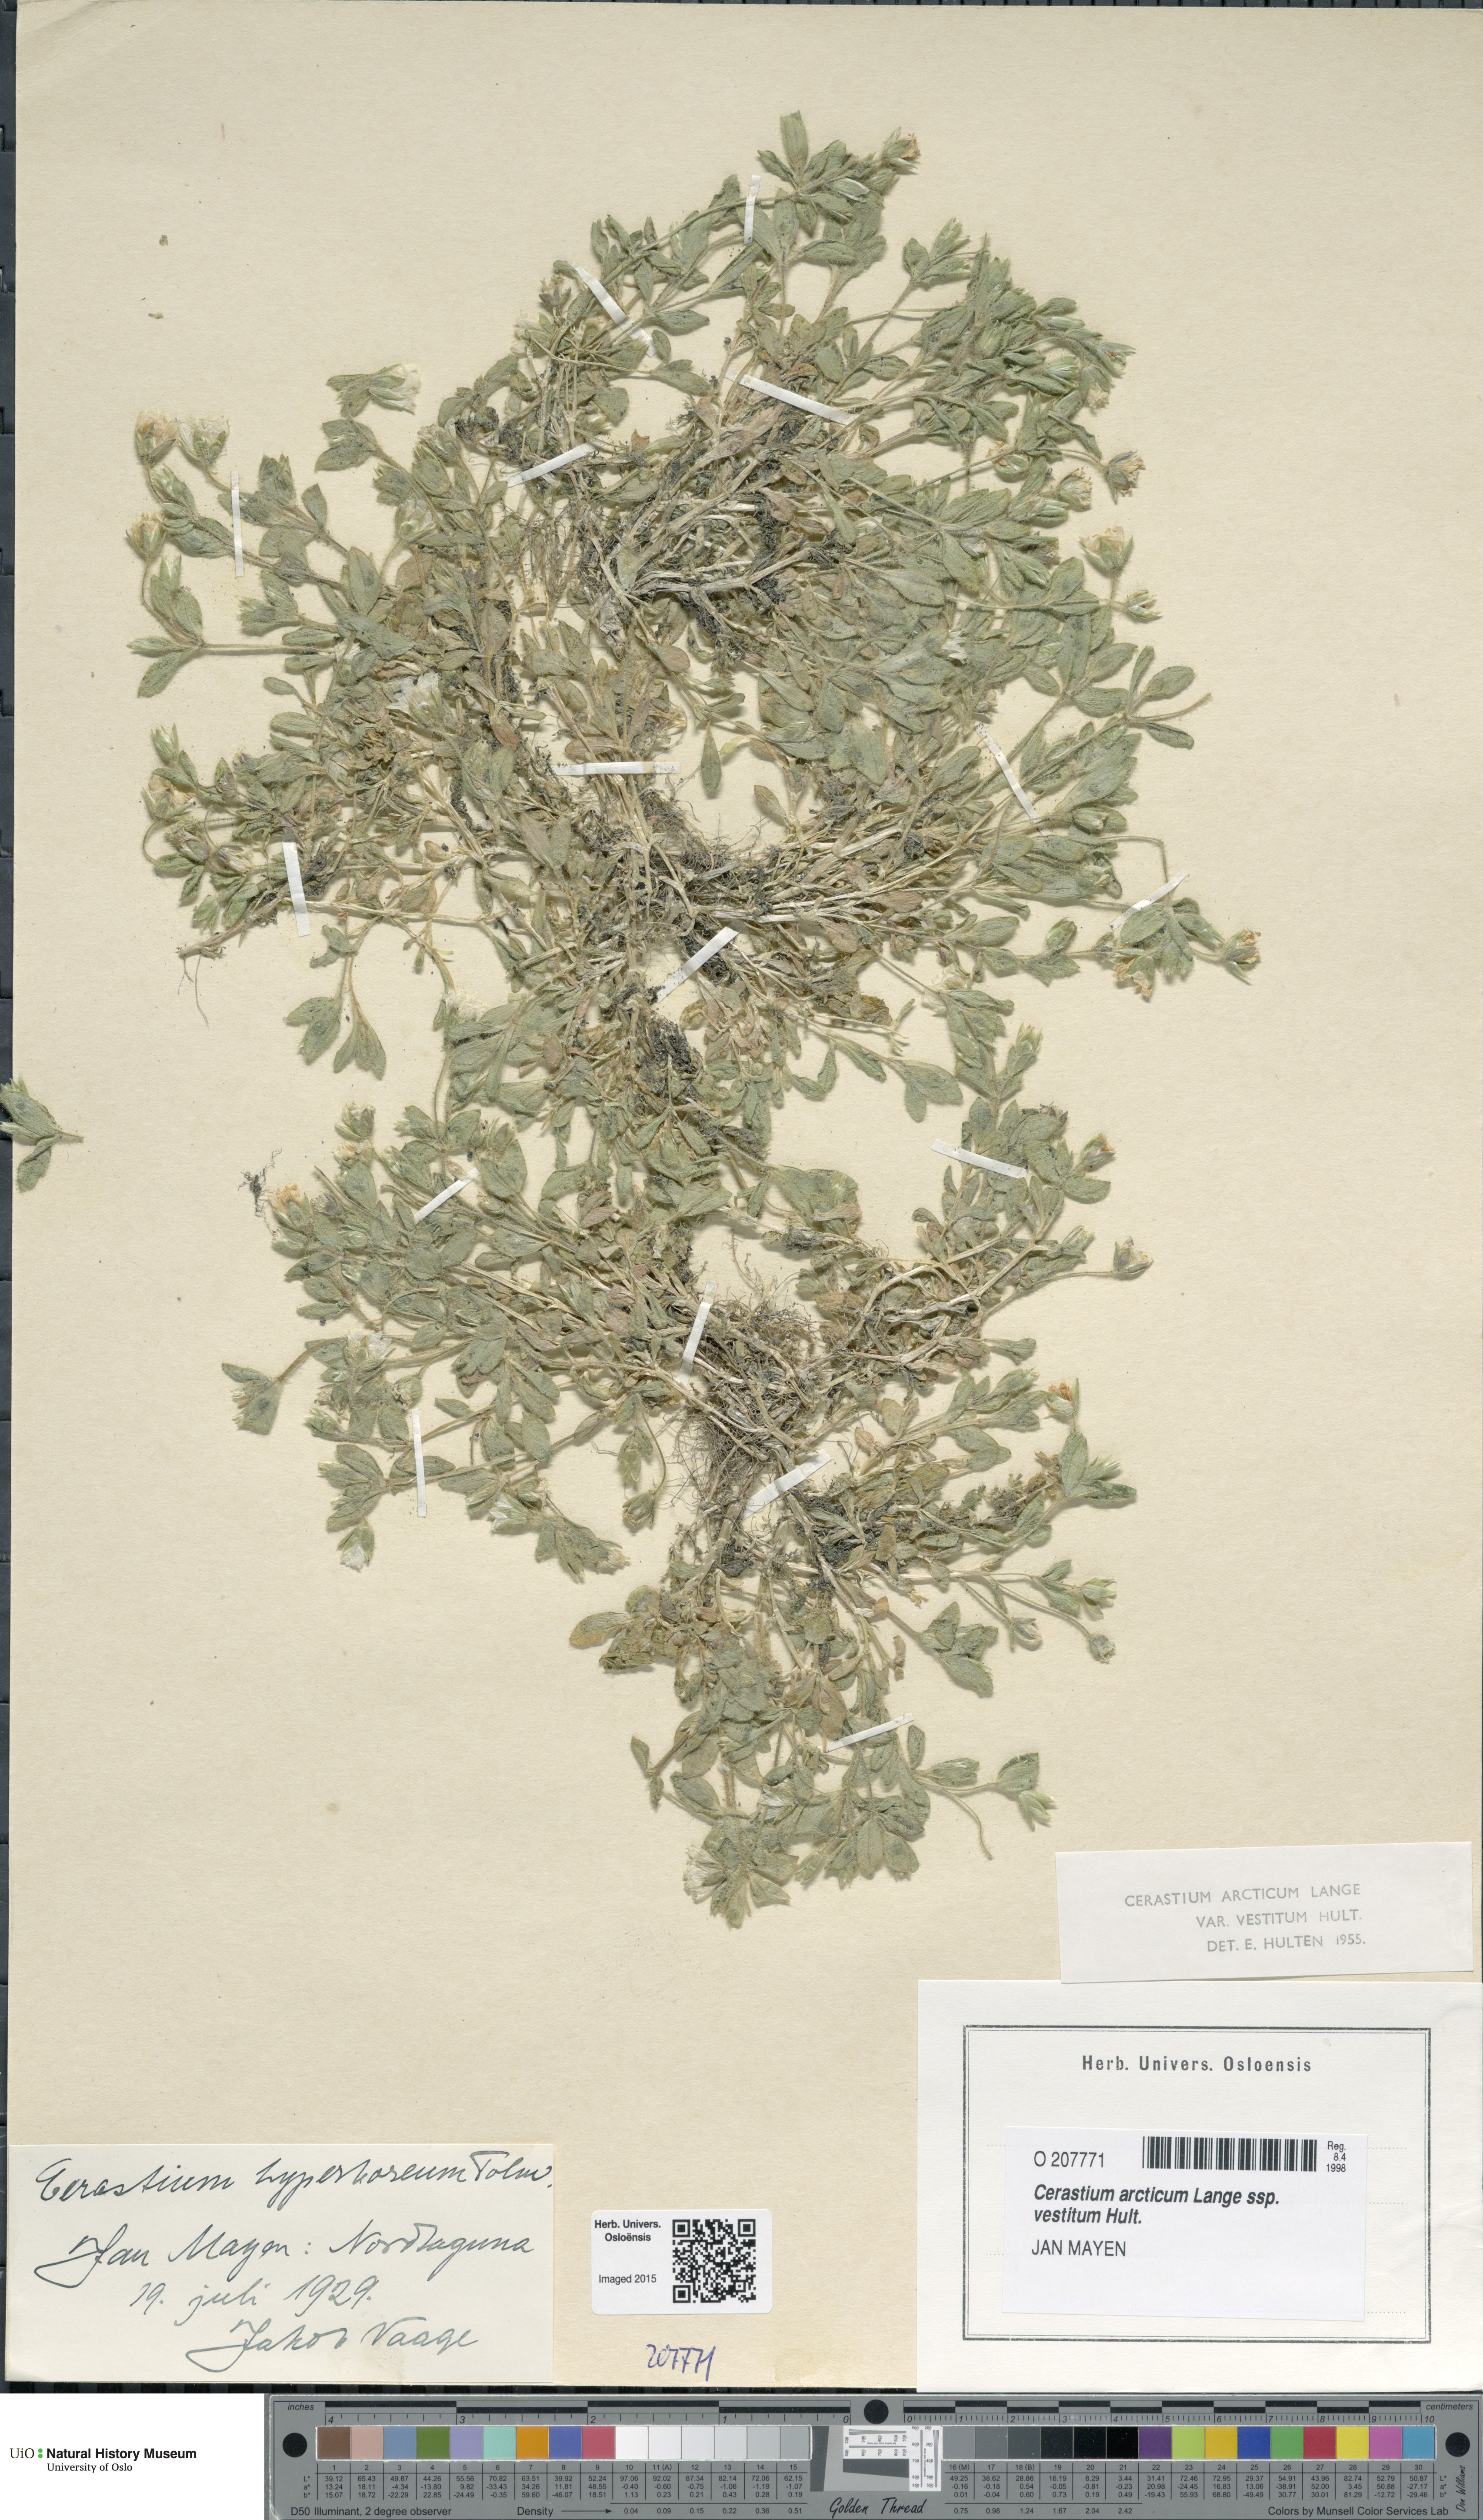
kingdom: Plantae
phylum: Tracheophyta
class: Magnoliopsida
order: Caryophyllales
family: Caryophyllaceae
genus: Cerastium
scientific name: Cerastium arcticum
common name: Arctic mouse-ear
